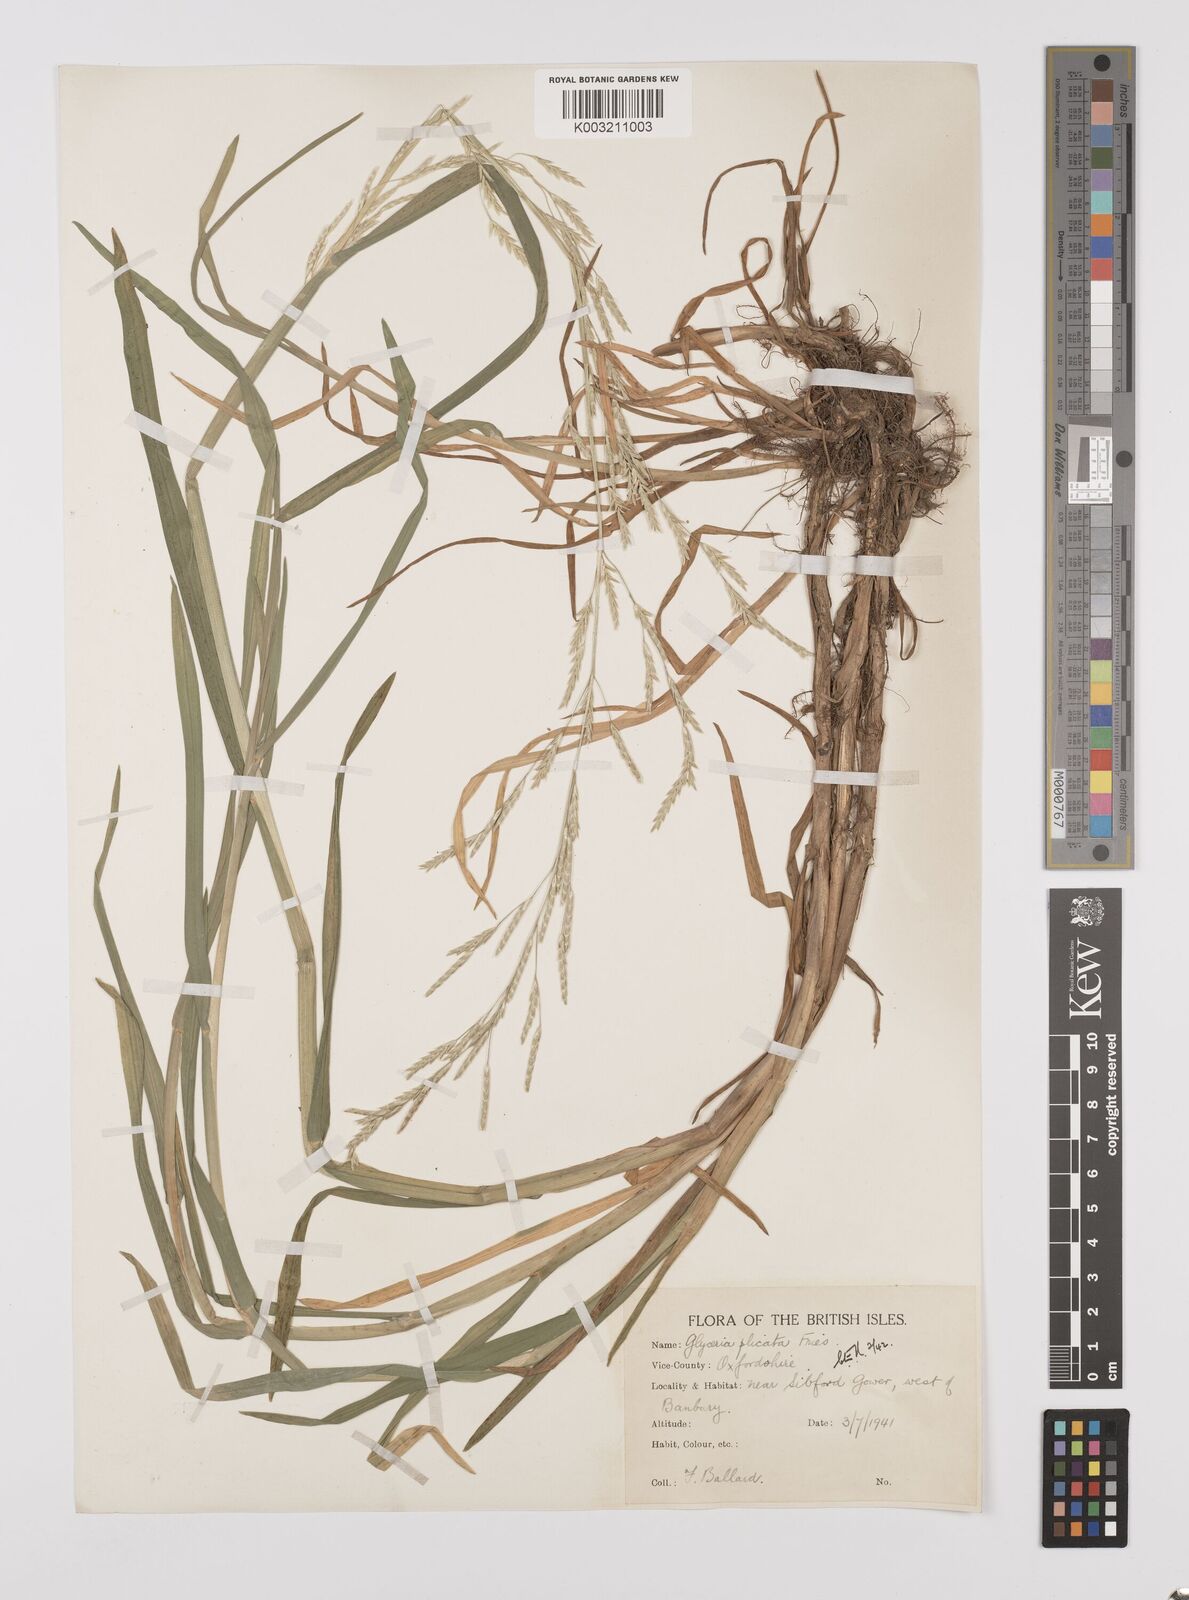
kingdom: Plantae
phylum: Tracheophyta
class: Liliopsida
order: Poales
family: Poaceae
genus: Glyceria
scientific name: Glyceria notata
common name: Plicate sweet-grass
